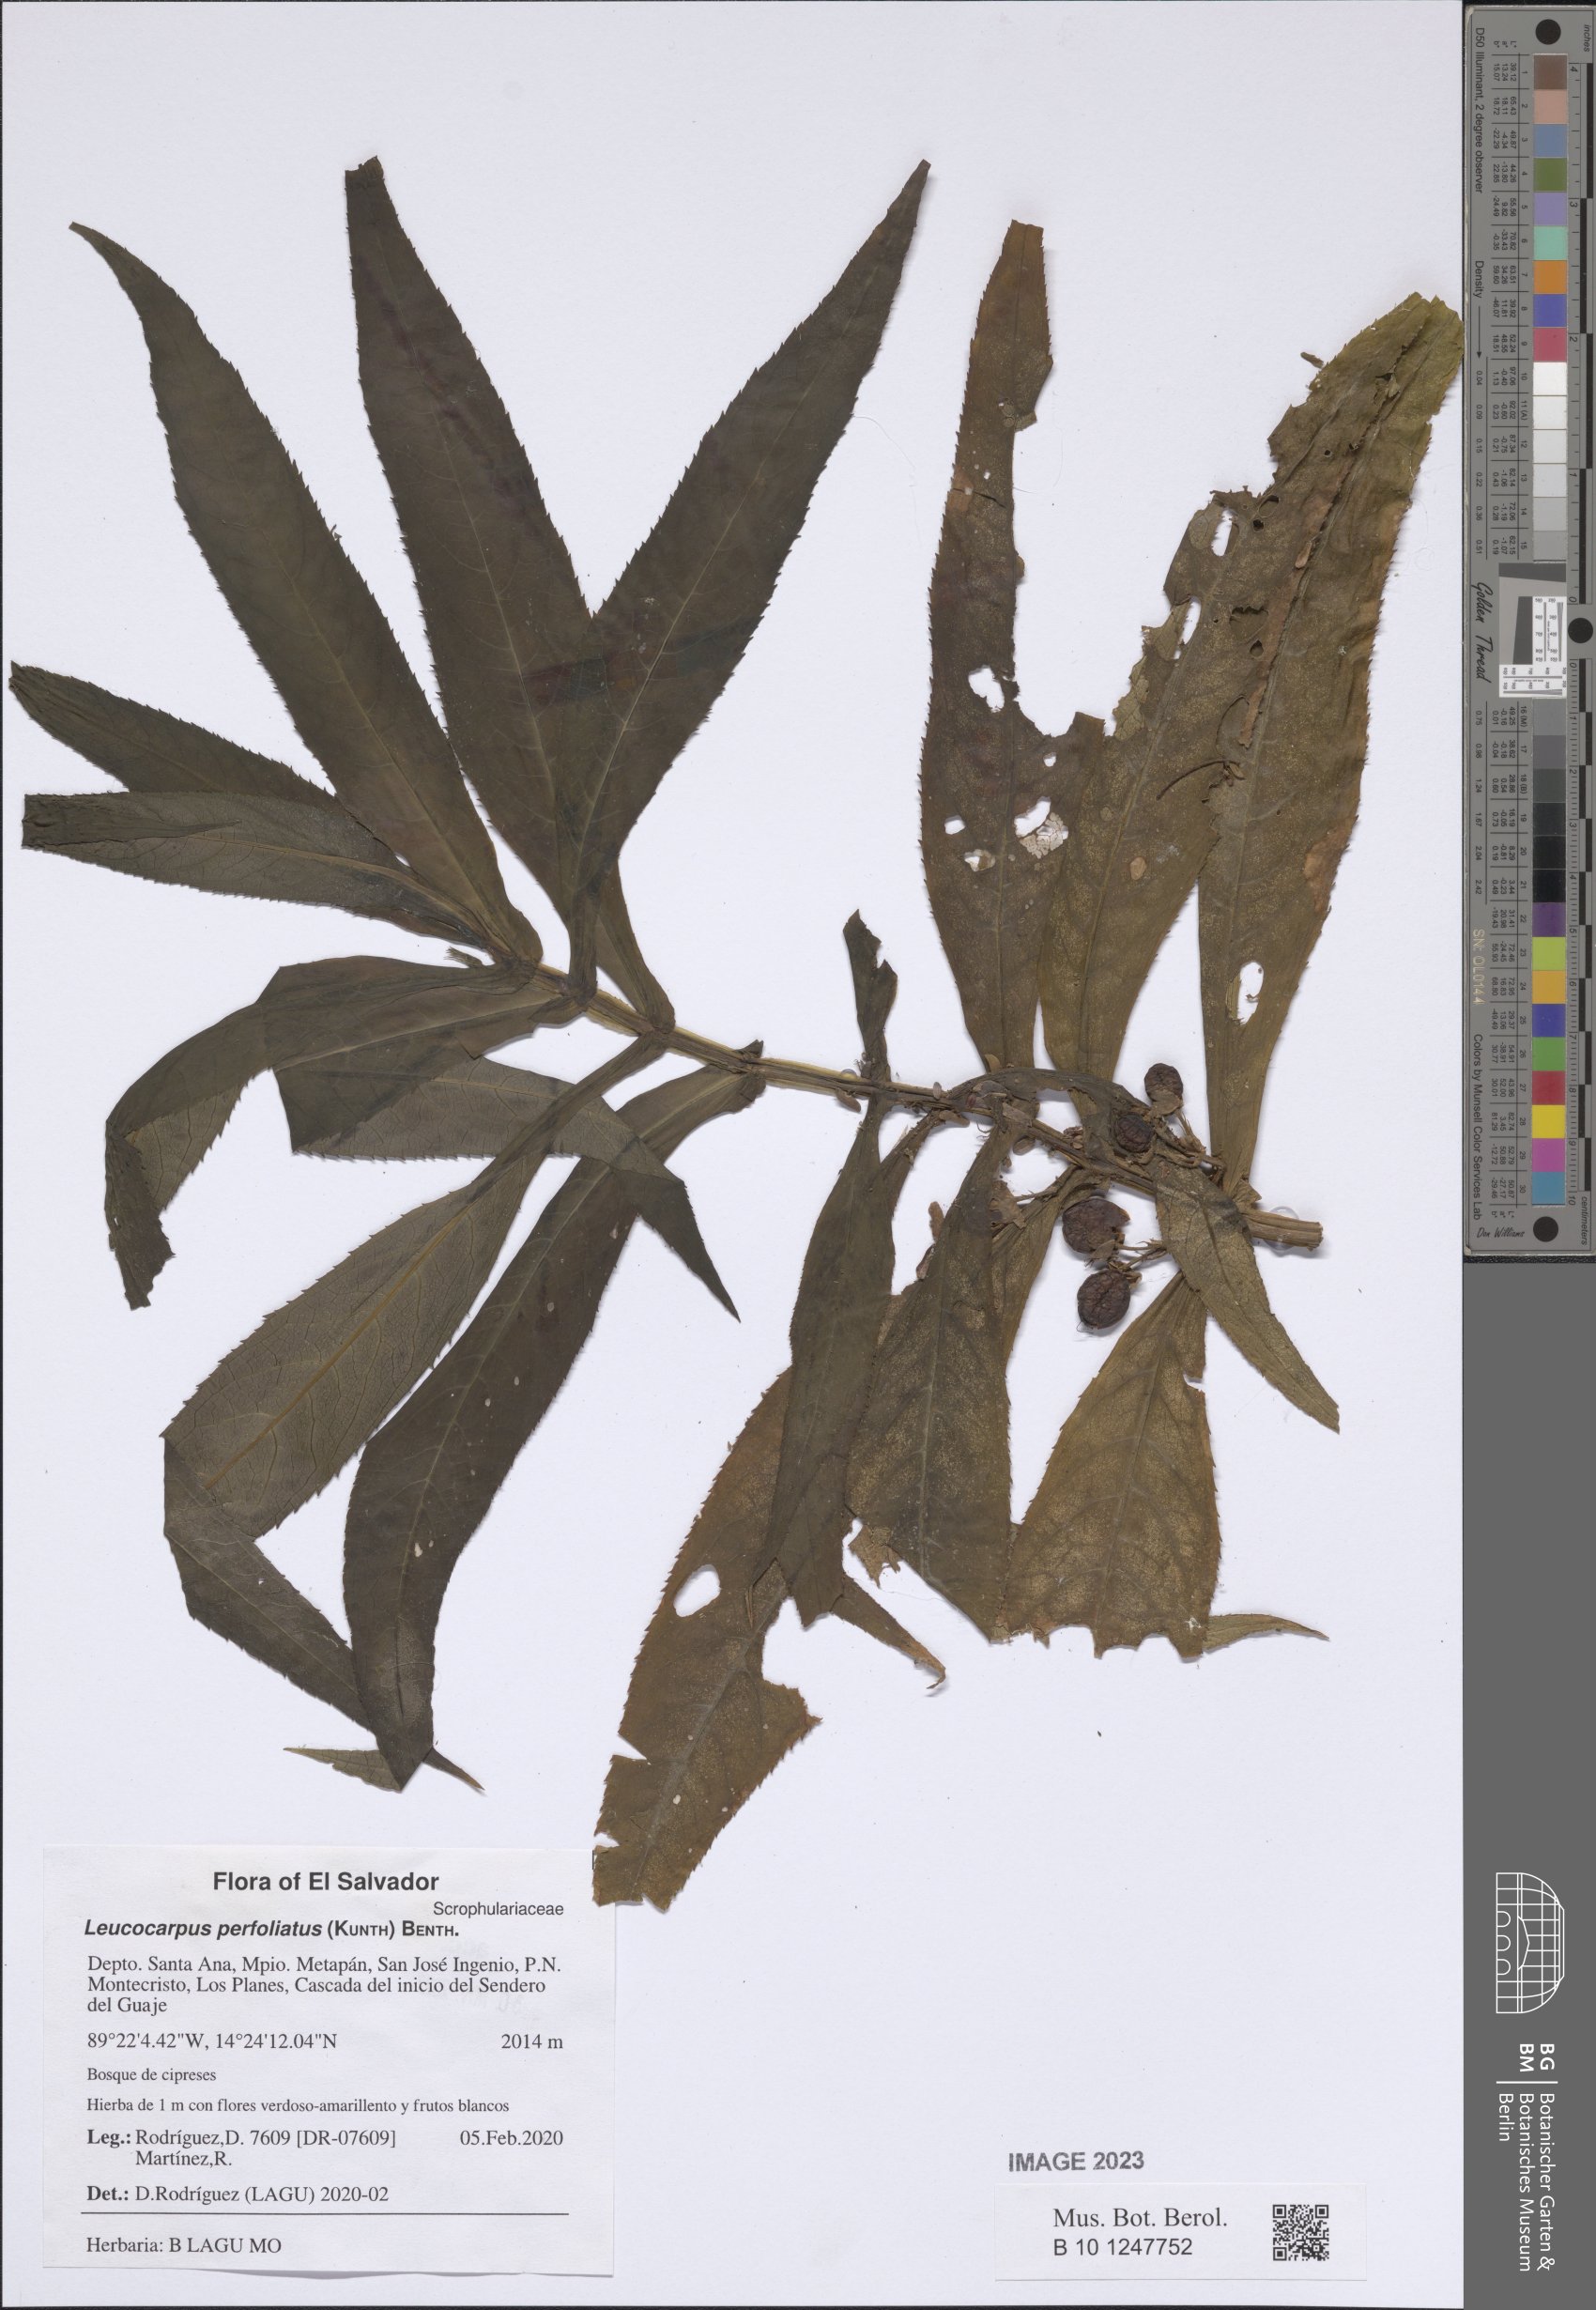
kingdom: Plantae
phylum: Tracheophyta
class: Magnoliopsida
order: Lamiales
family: Phrymaceae
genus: Leucocarpus
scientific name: Leucocarpus perfoliatus
